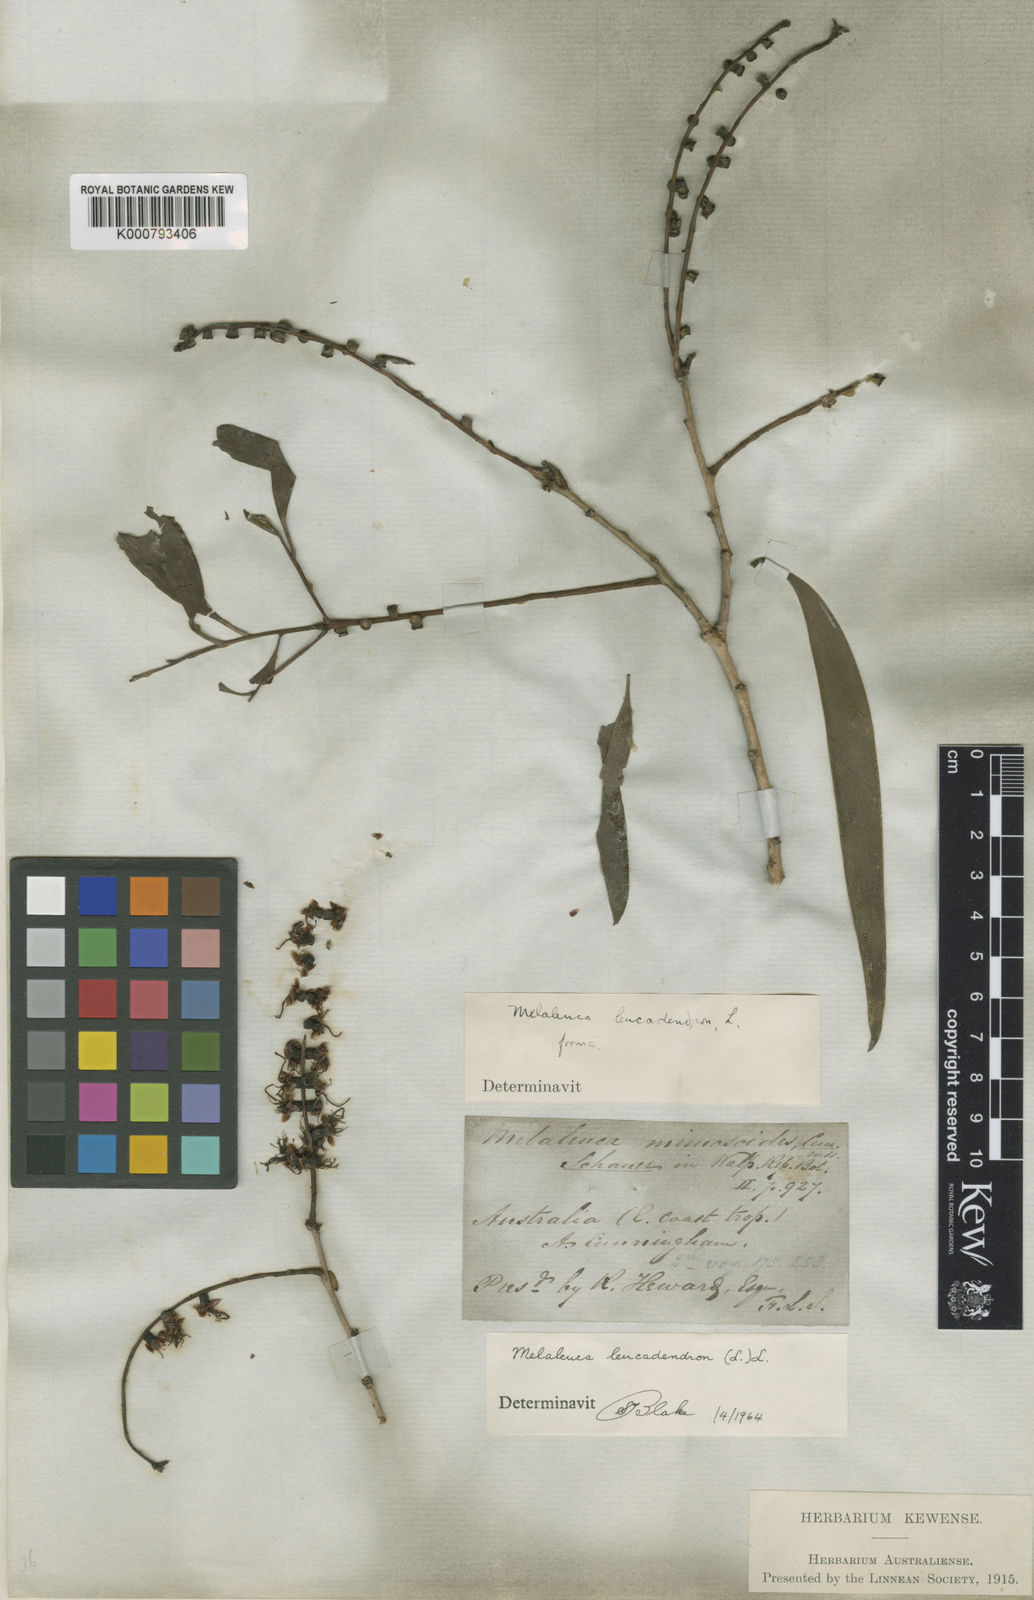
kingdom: Plantae
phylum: Tracheophyta
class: Magnoliopsida
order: Myrtales
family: Myrtaceae
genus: Melaleuca
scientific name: Melaleuca leucadendra
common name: Weeping paperbark
